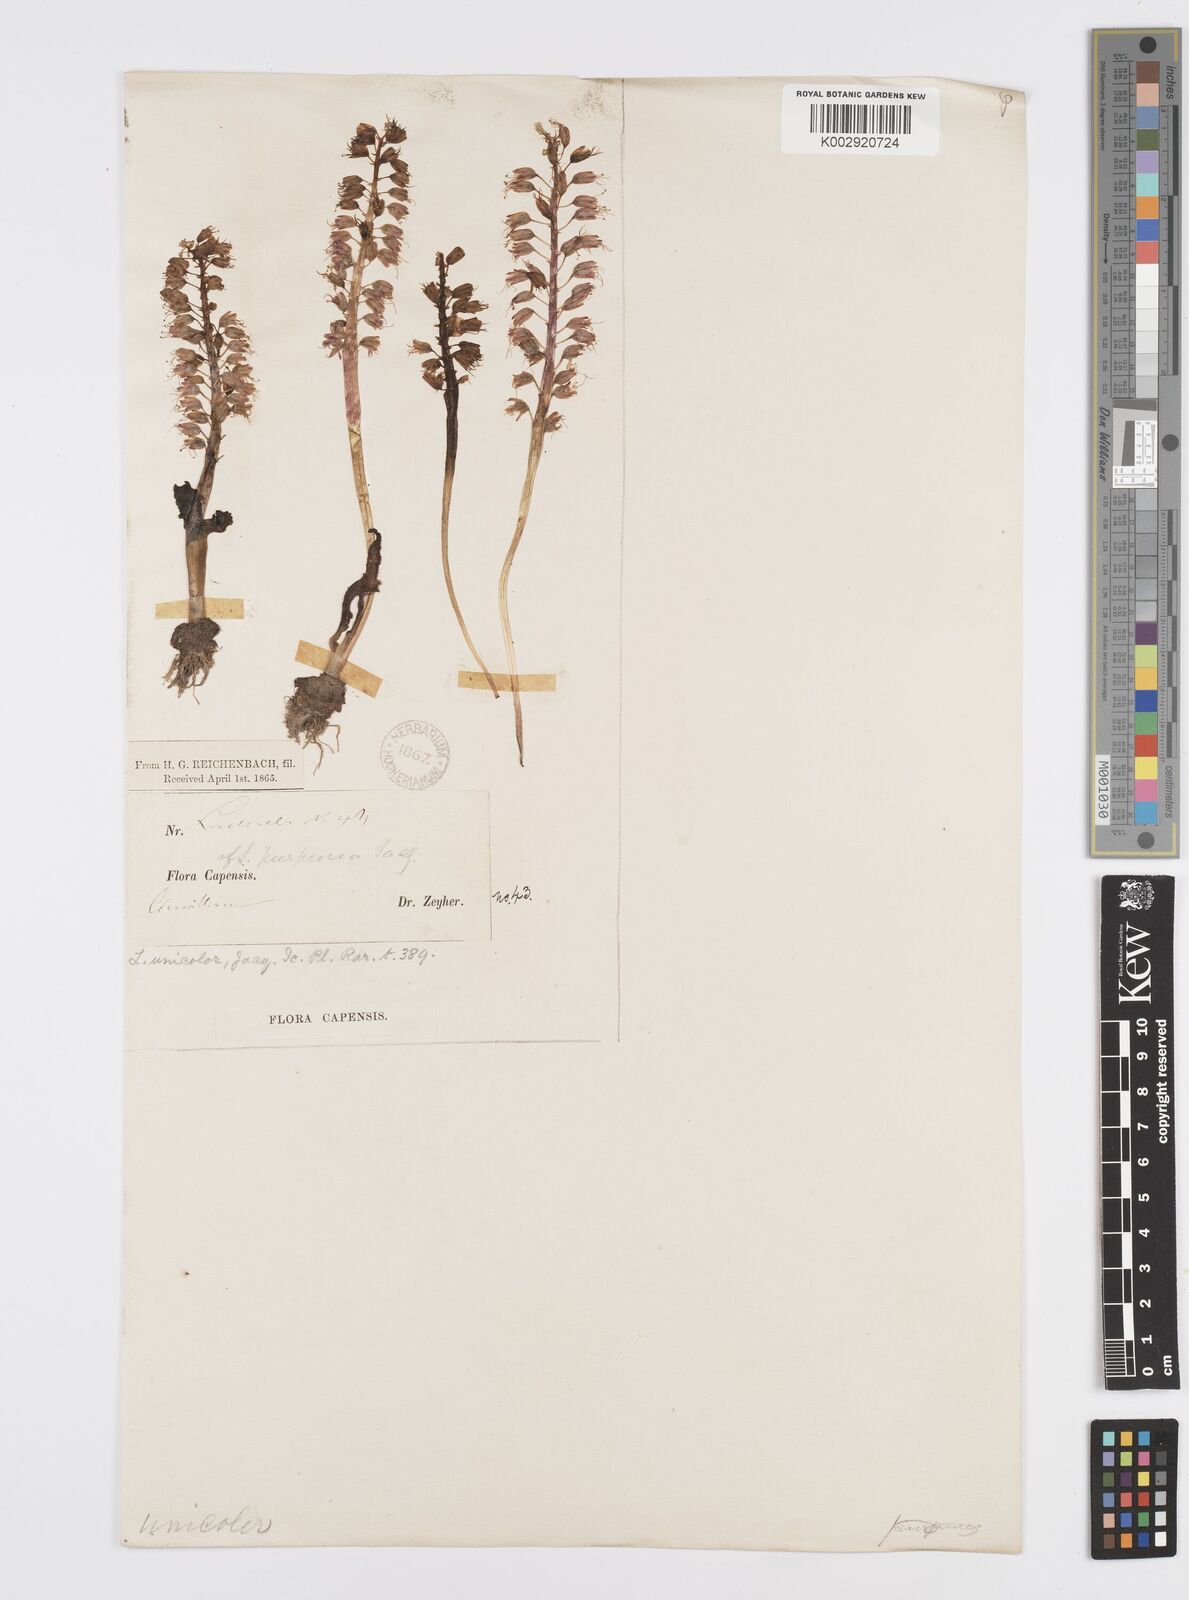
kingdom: Plantae
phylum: Tracheophyta
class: Liliopsida
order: Asparagales
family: Asparagaceae
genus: Lachenalia
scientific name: Lachenalia pallida
